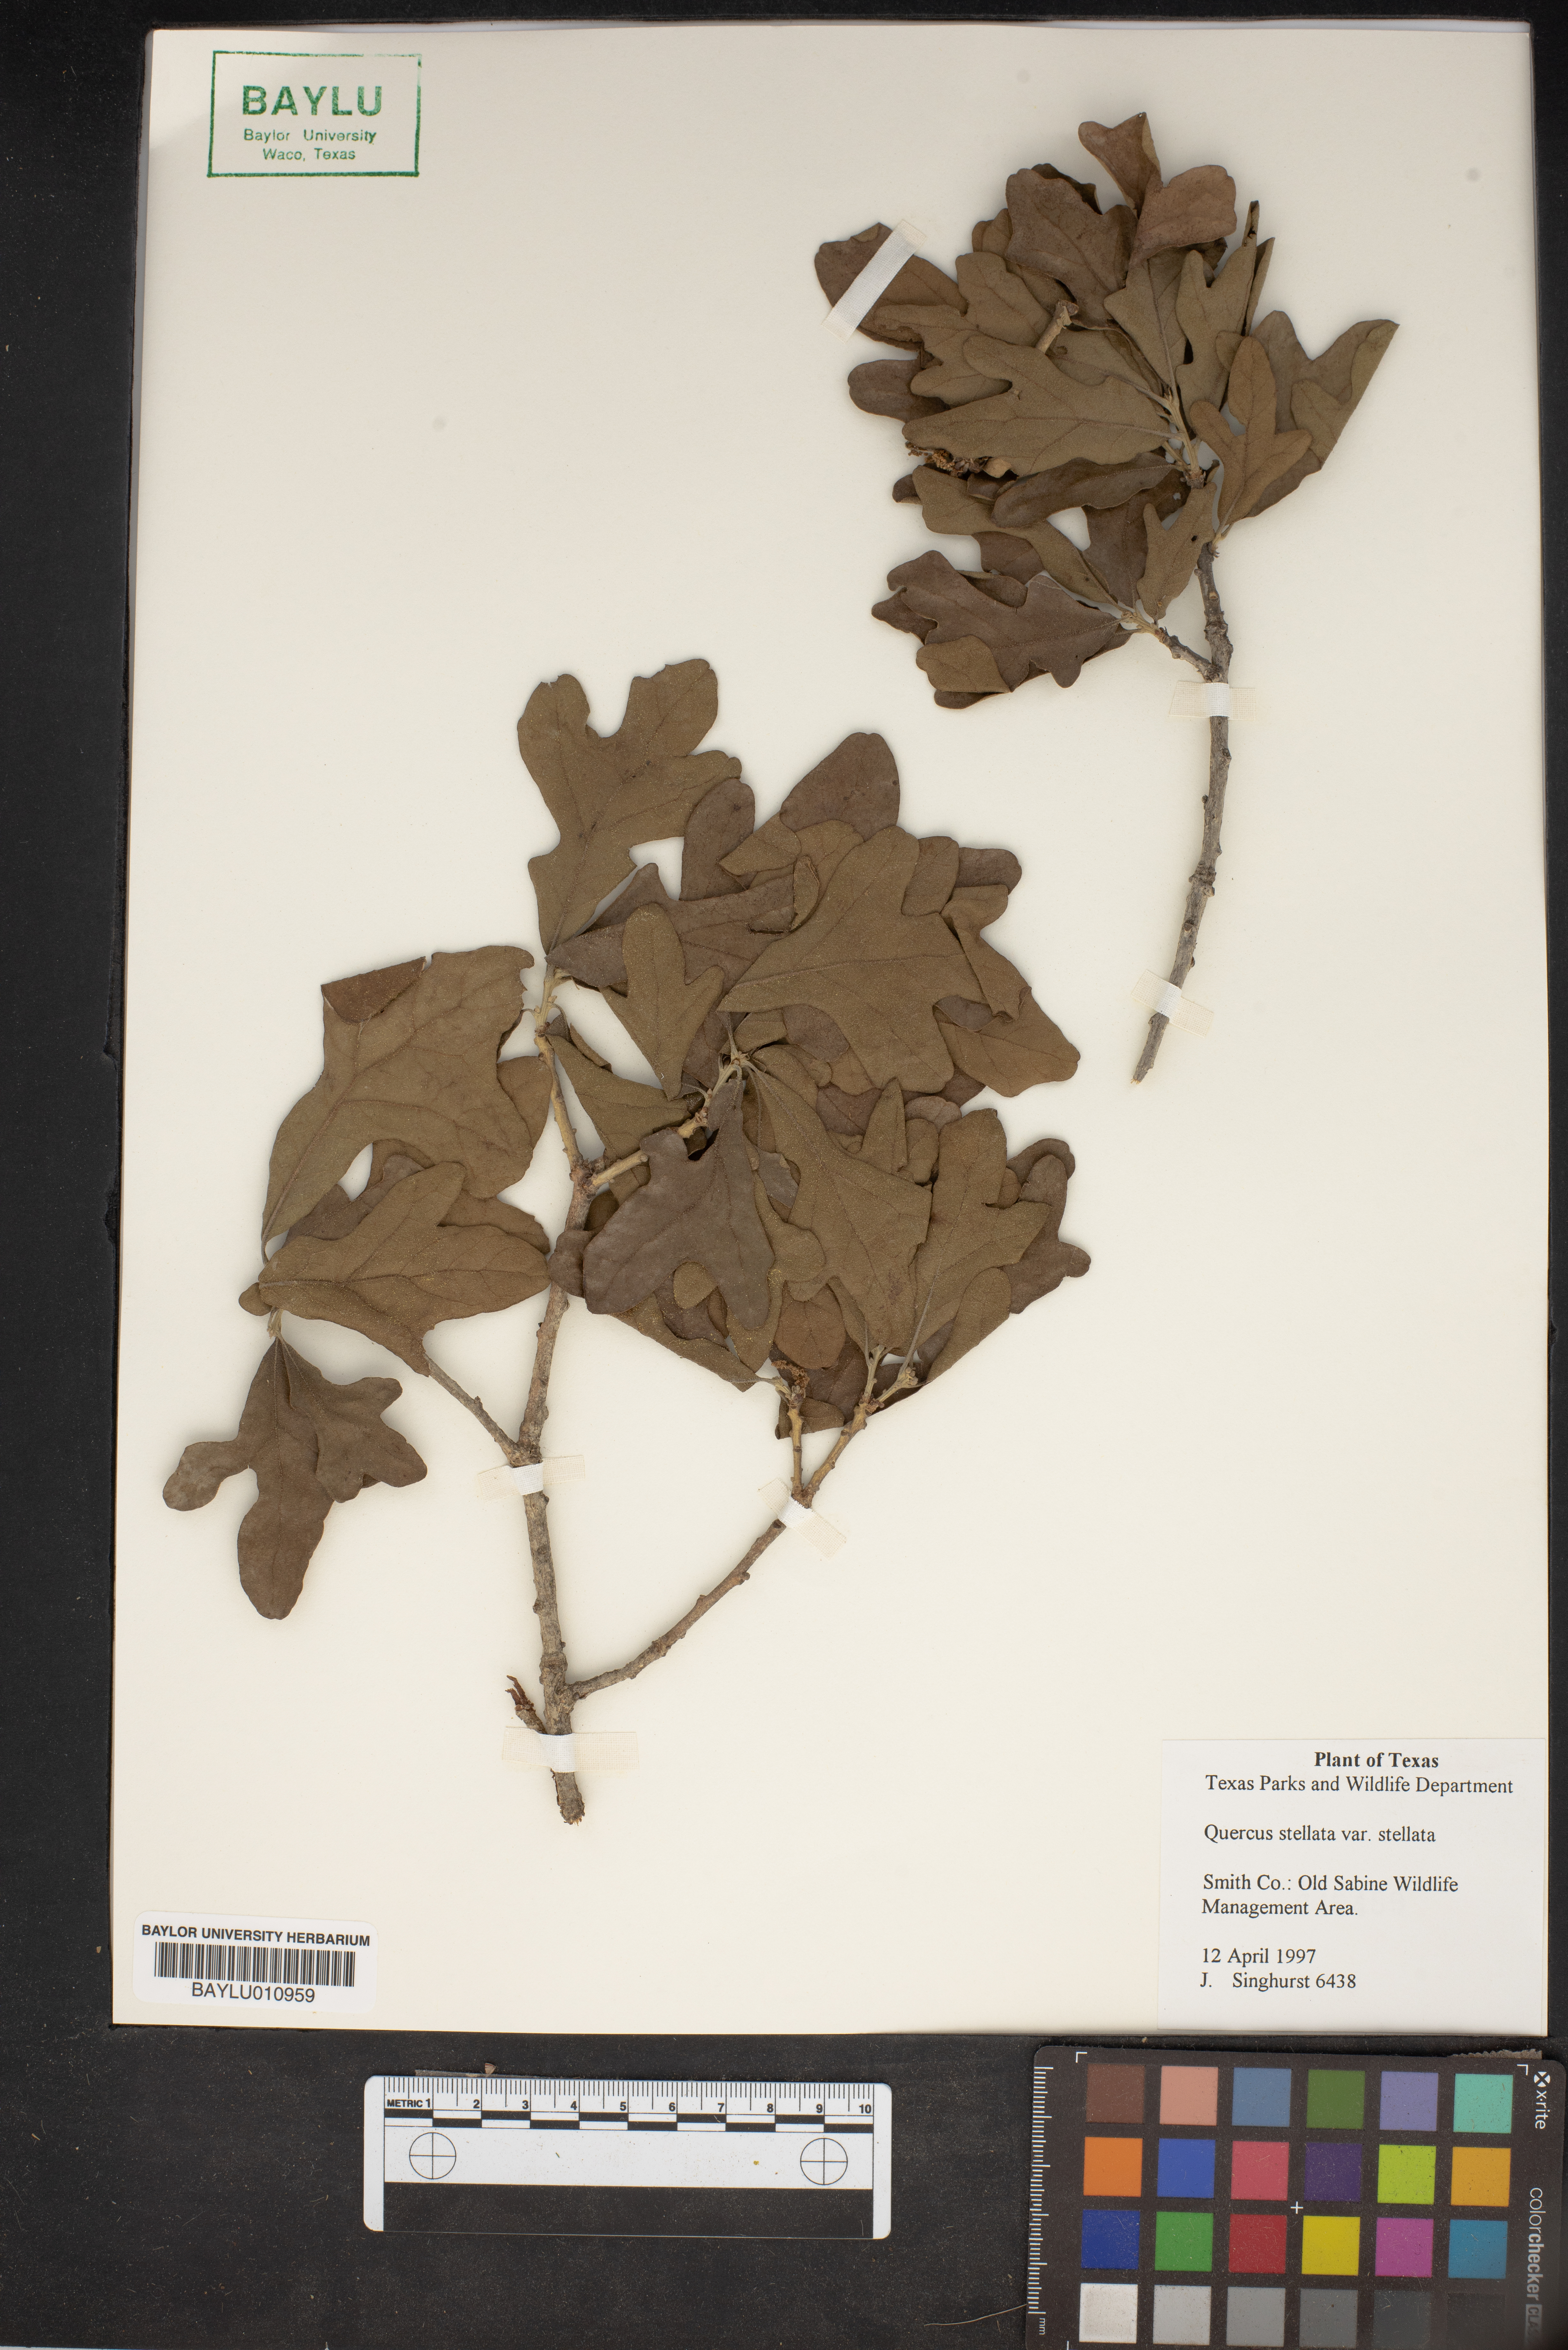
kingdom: Plantae
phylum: Tracheophyta
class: Magnoliopsida
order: Fagales
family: Fagaceae
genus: Quercus
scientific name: Quercus stellata
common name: Post oak
